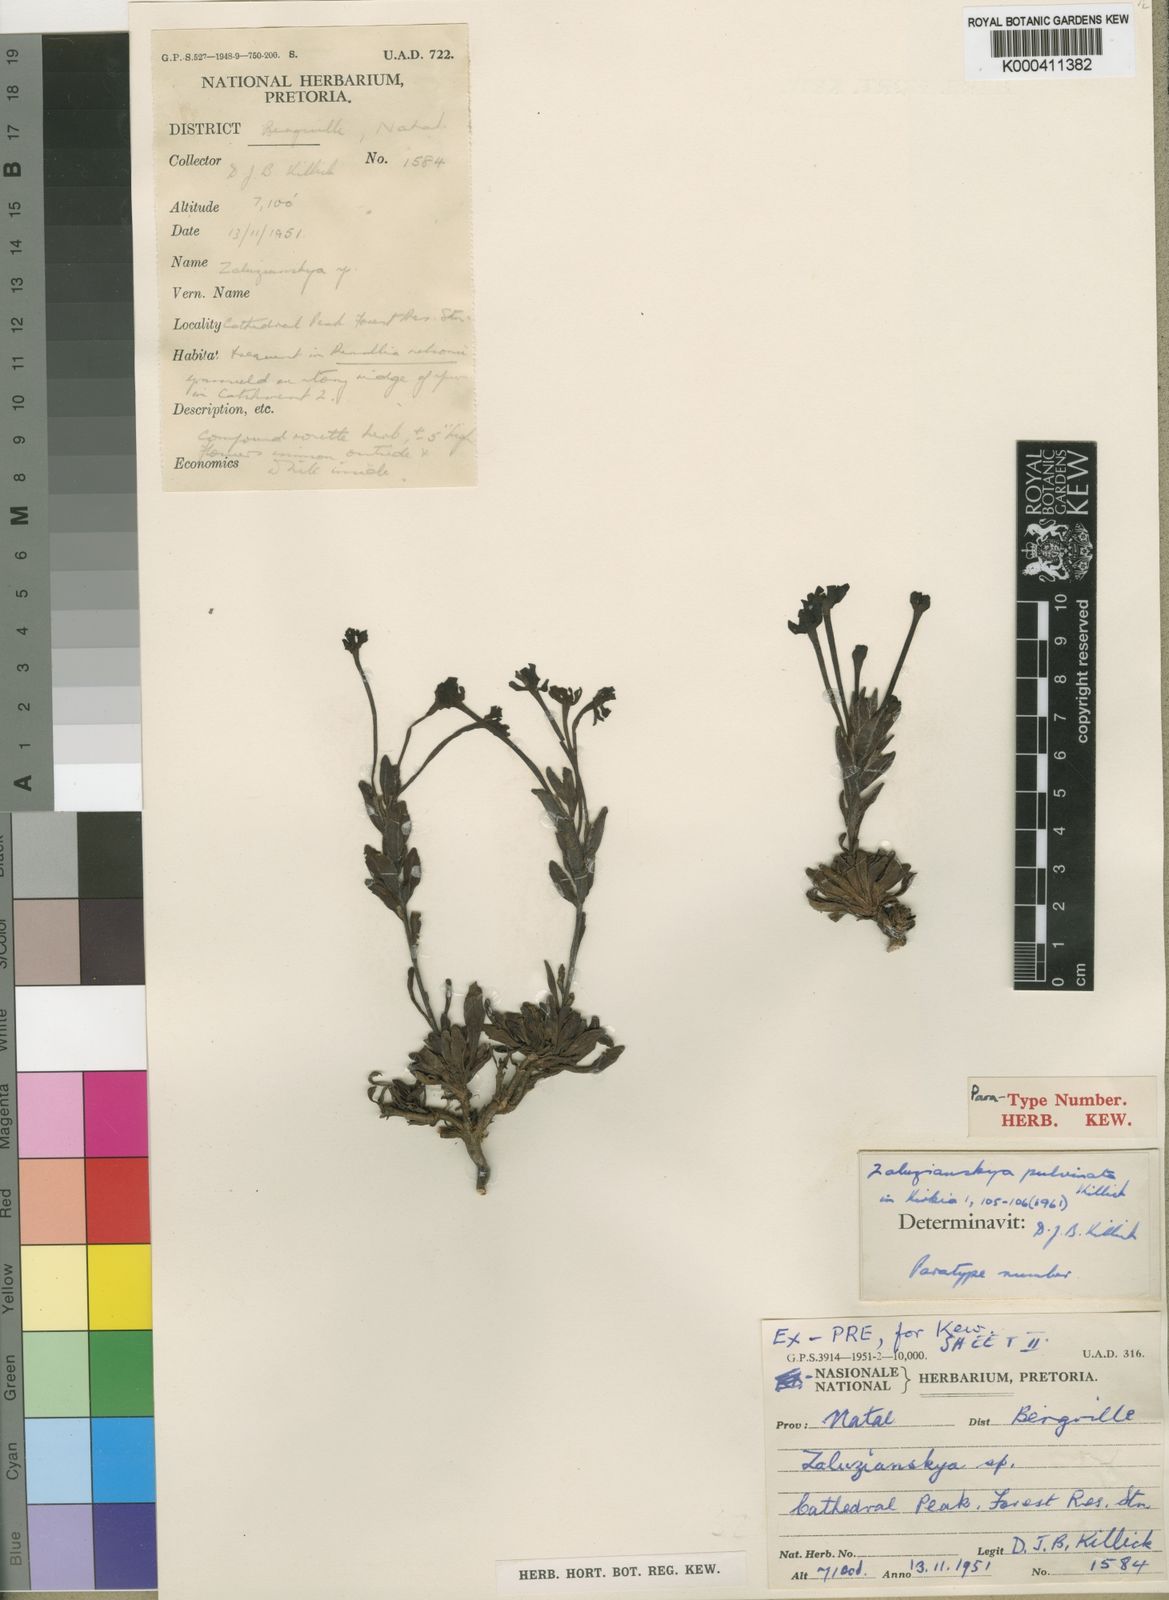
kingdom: Plantae
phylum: Tracheophyta
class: Magnoliopsida
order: Lamiales
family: Scrophulariaceae
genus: Zaluzianskya
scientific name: Zaluzianskya pulvinata
